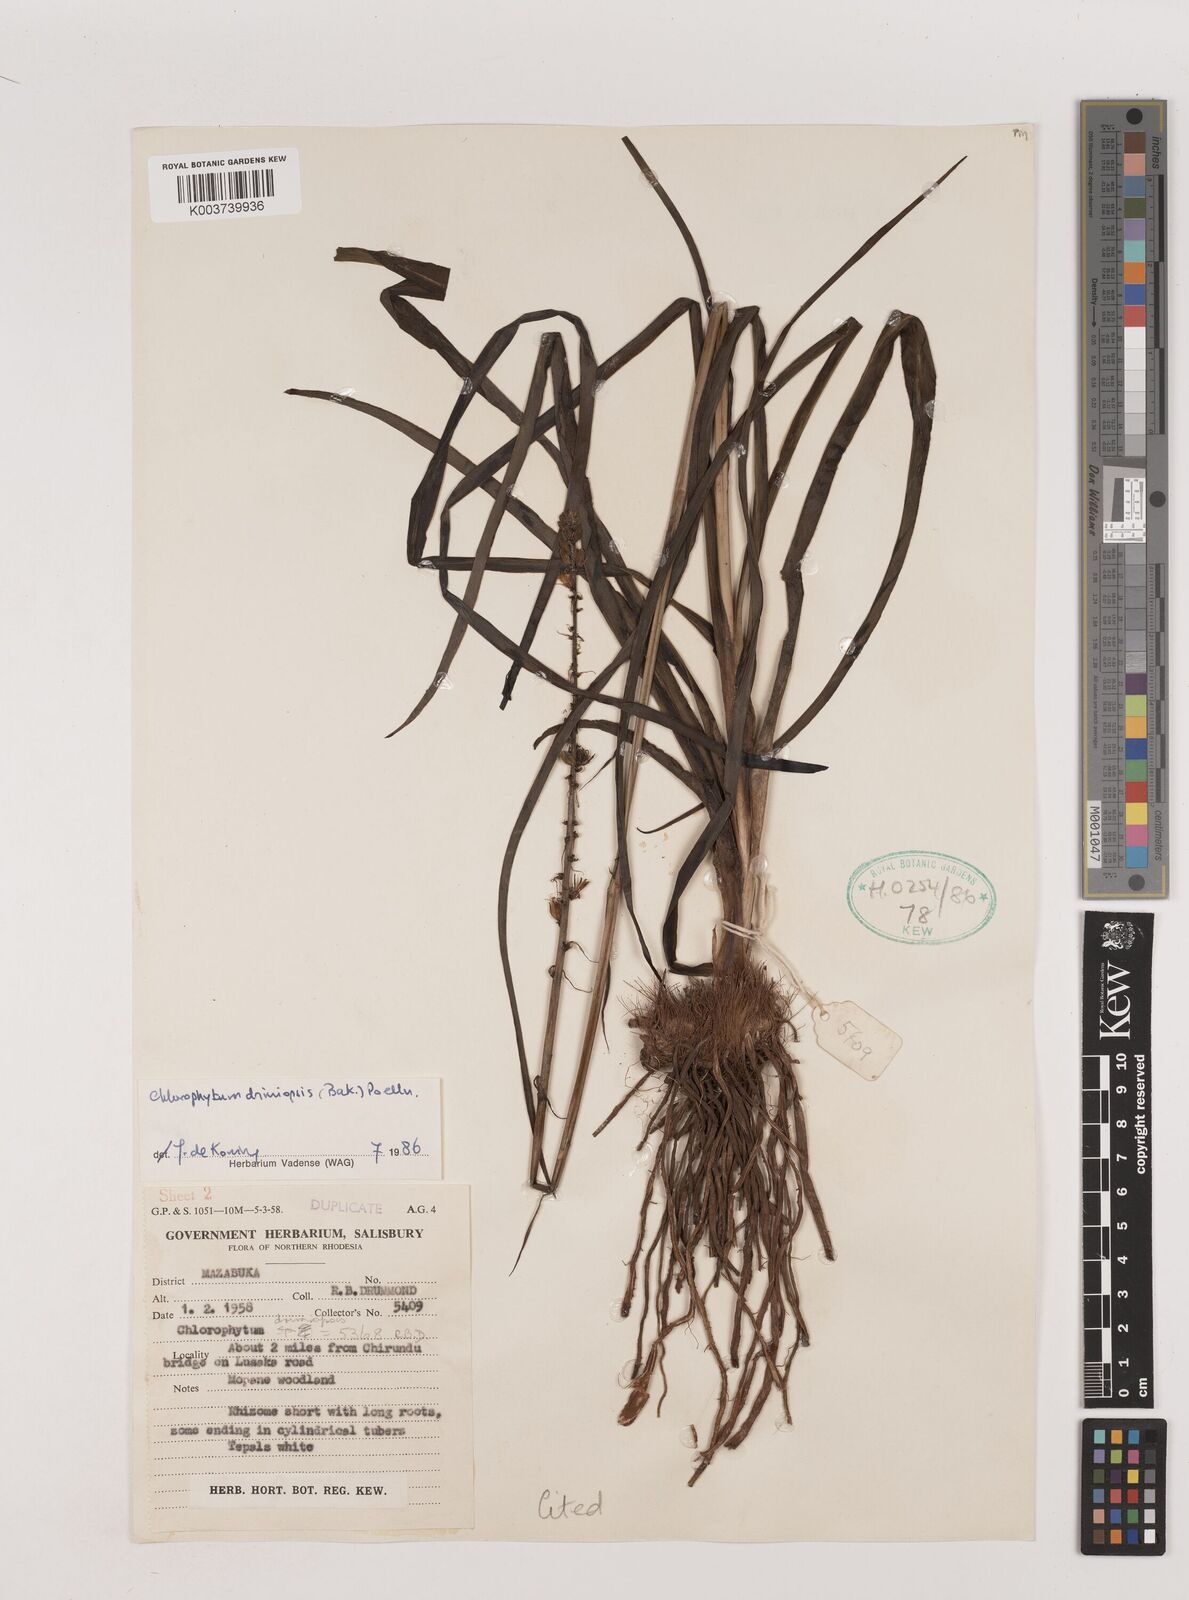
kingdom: Plantae
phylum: Tracheophyta
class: Liliopsida
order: Asparagales
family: Asparagaceae
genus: Chlorophytum
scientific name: Chlorophytum longifolium
